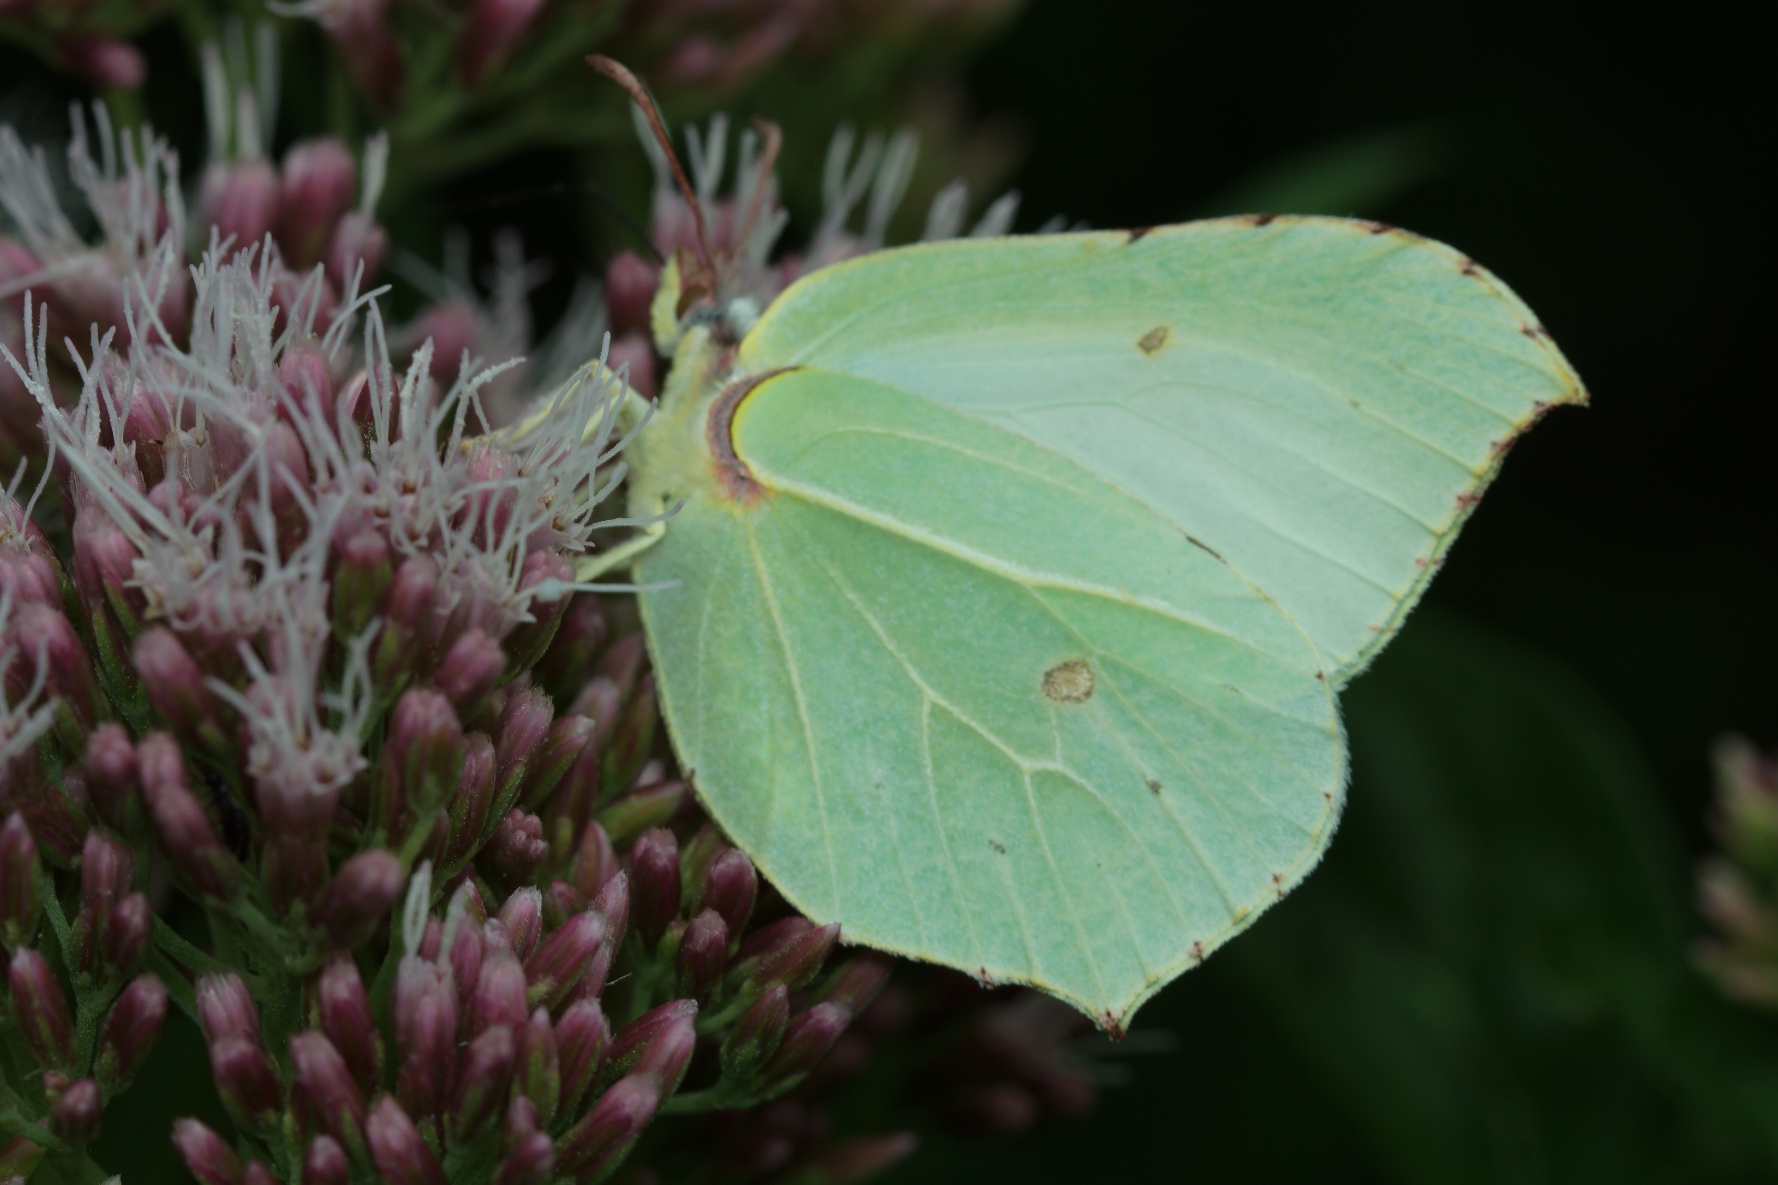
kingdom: Animalia
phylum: Arthropoda
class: Insecta
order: Lepidoptera
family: Pieridae
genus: Gonepteryx
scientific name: Gonepteryx rhamni
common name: Citronsommerfugl
